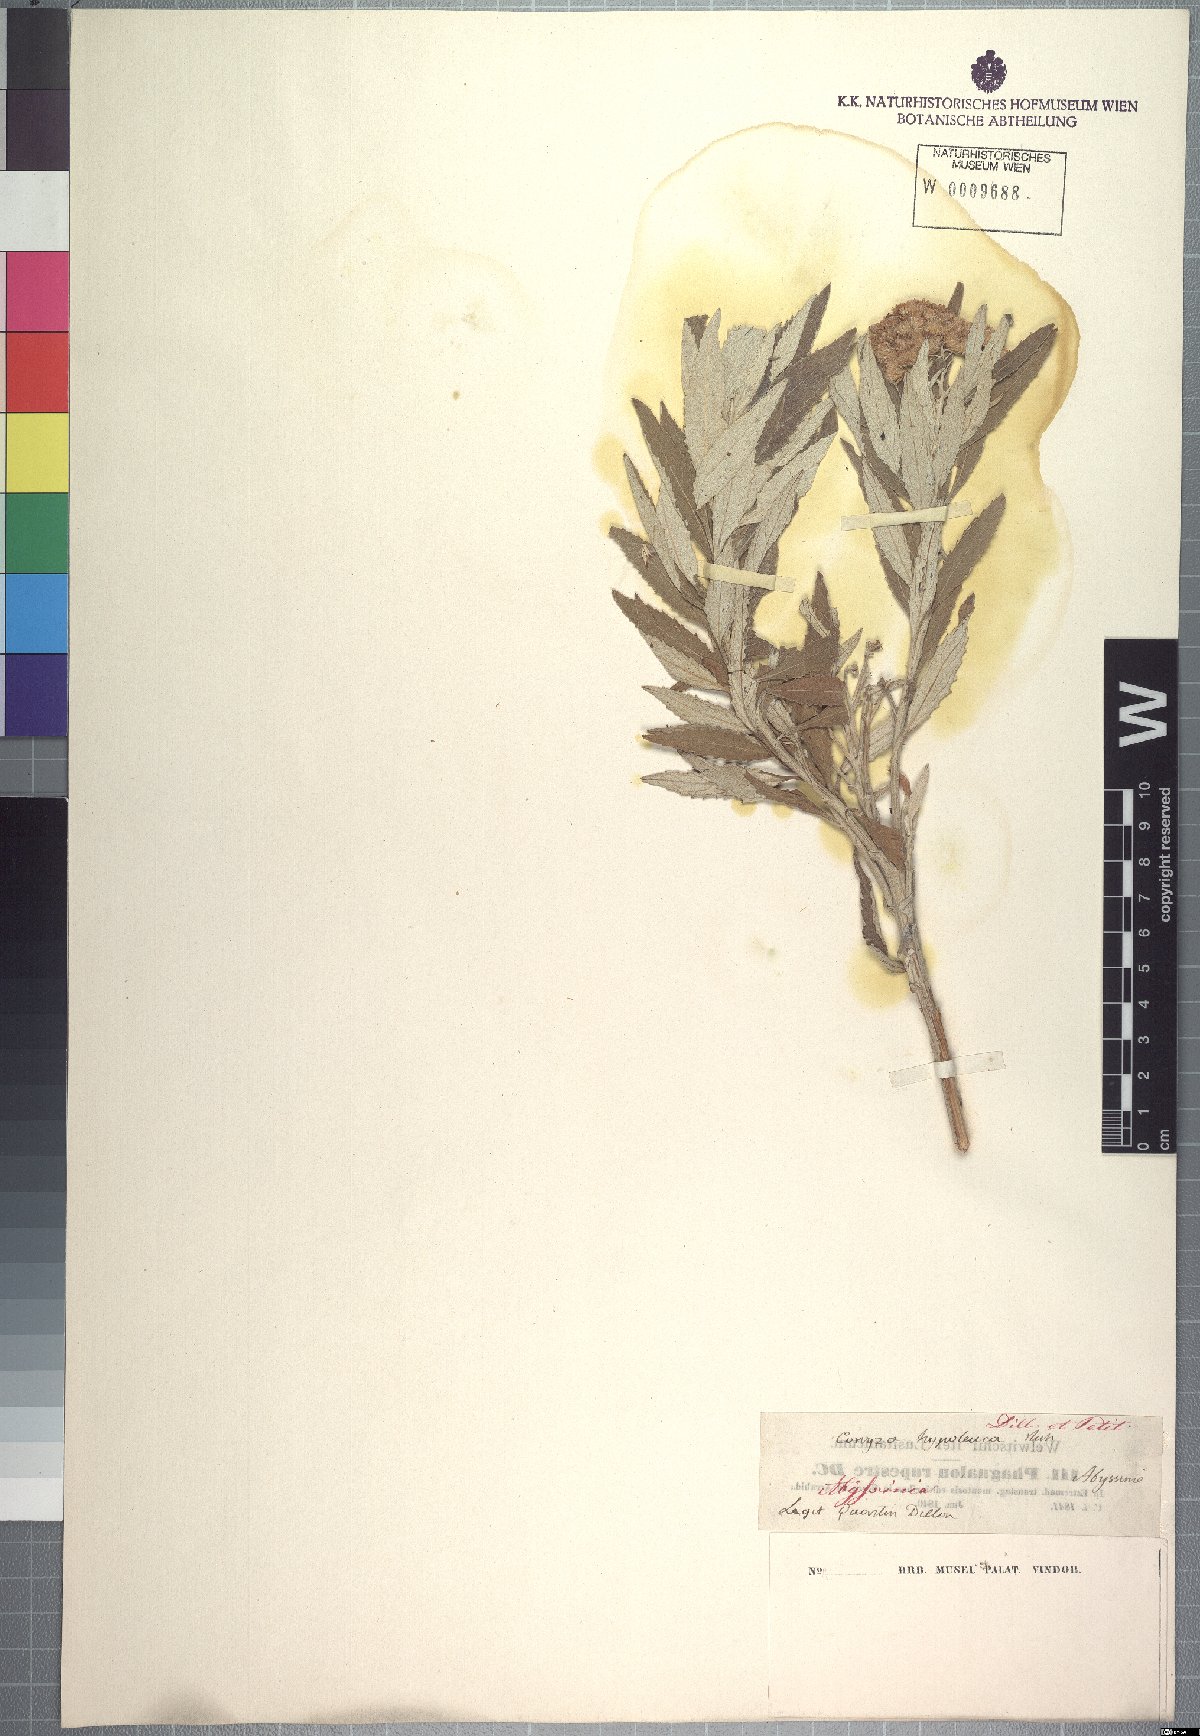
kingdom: Plantae
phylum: Tracheophyta
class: Magnoliopsida
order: Asterales
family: Asteraceae
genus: Nidorella
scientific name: Nidorella elliotii
